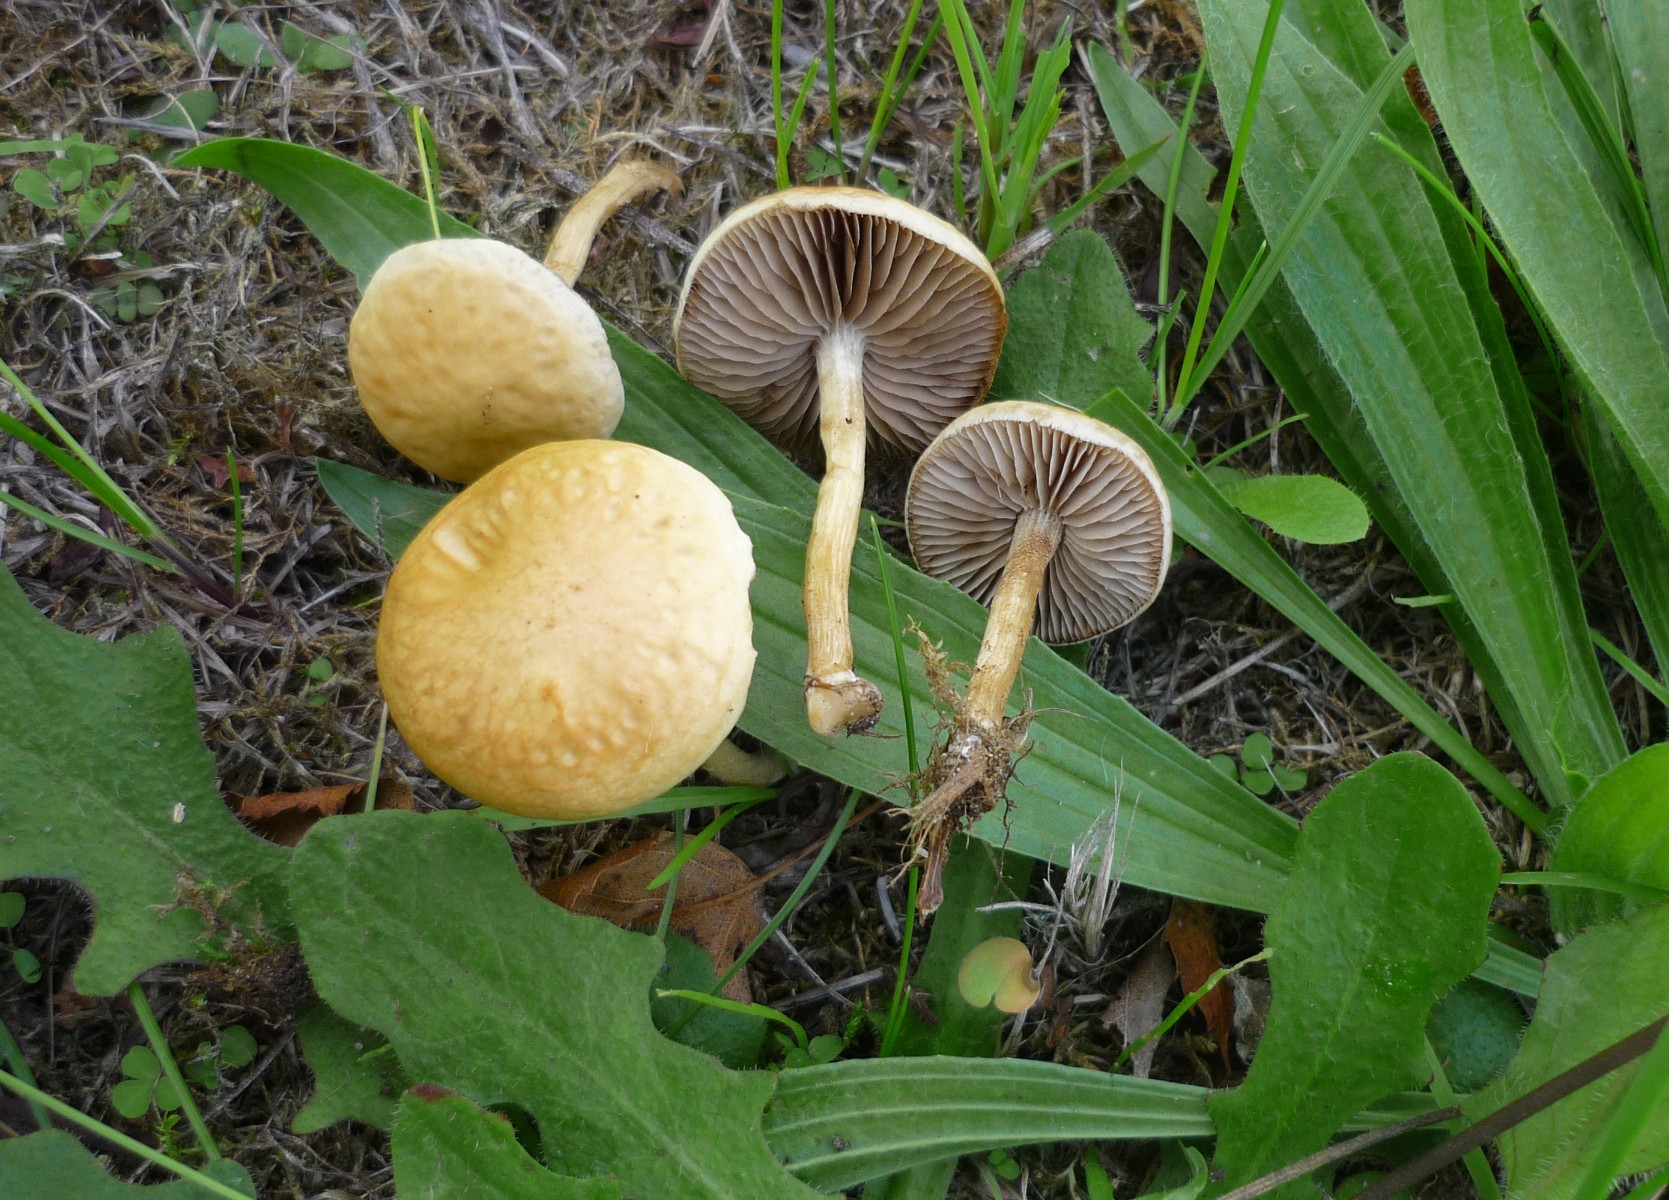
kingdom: Fungi
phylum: Basidiomycota
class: Agaricomycetes
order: Agaricales
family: Strophariaceae
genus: Agrocybe
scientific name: Agrocybe vervacti
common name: lav agerhat
